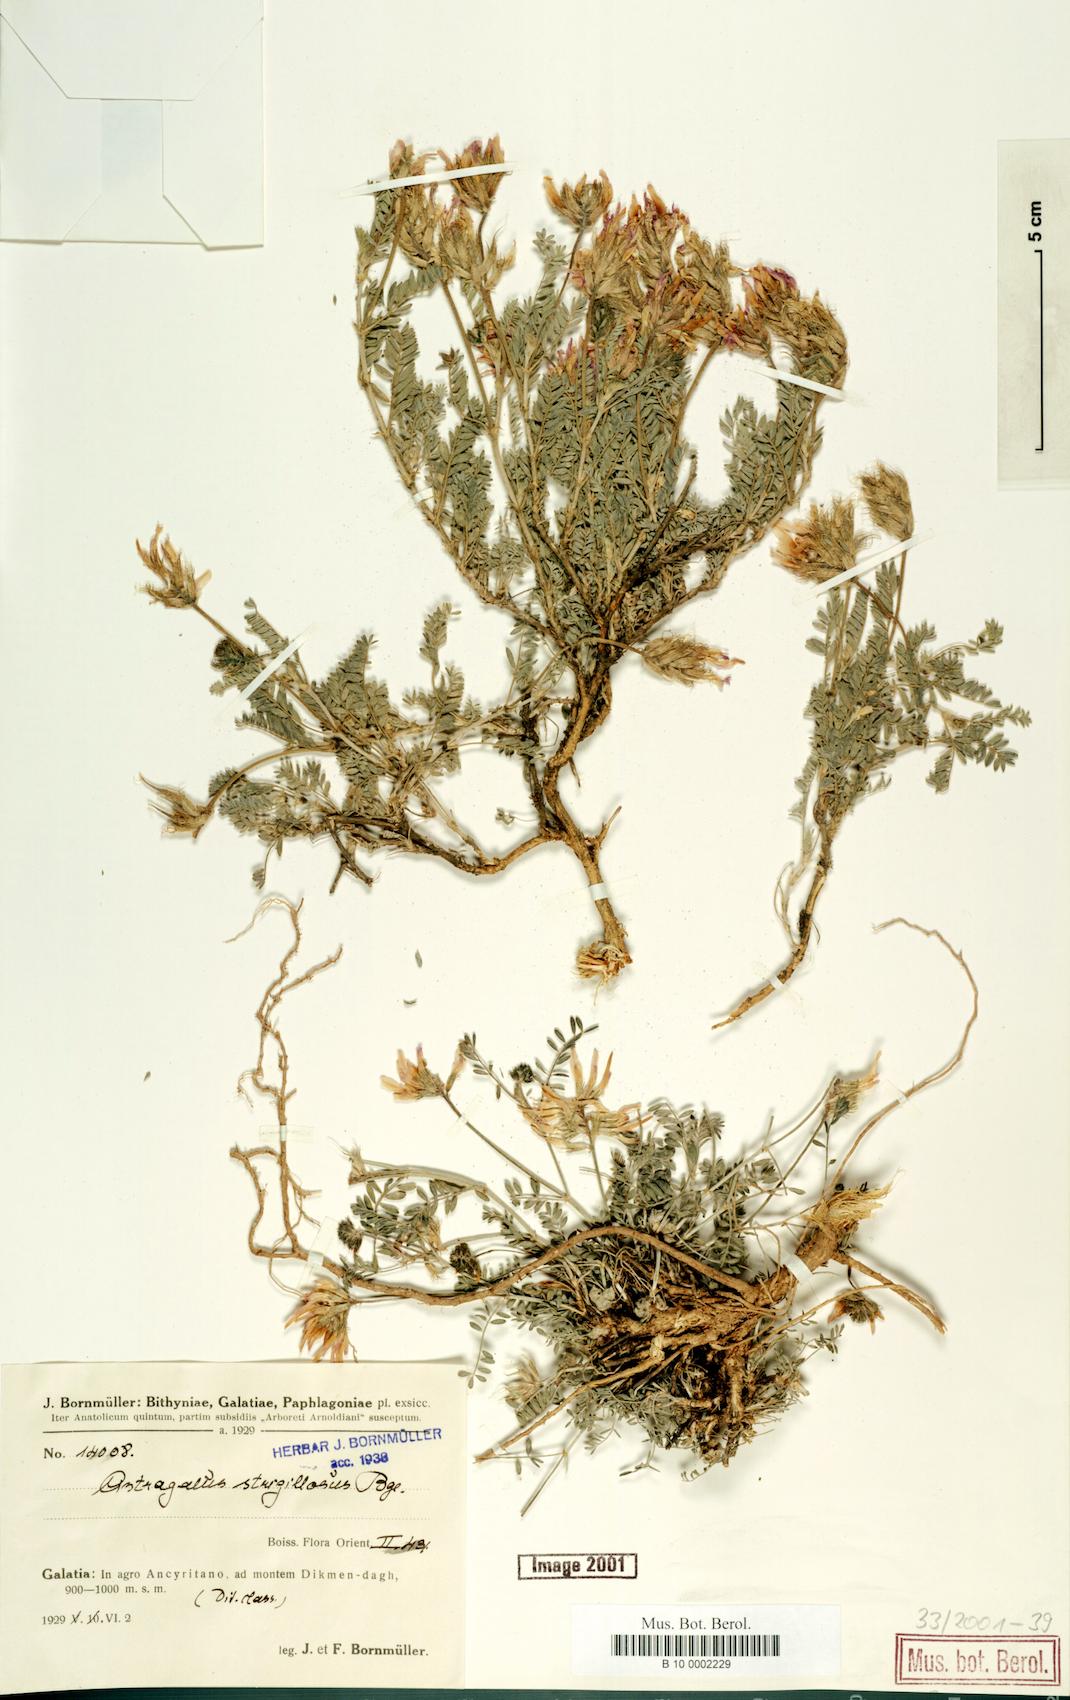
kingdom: Plantae
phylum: Tracheophyta
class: Magnoliopsida
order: Fabales
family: Fabaceae
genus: Astragalus
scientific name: Astragalus strigillosus
